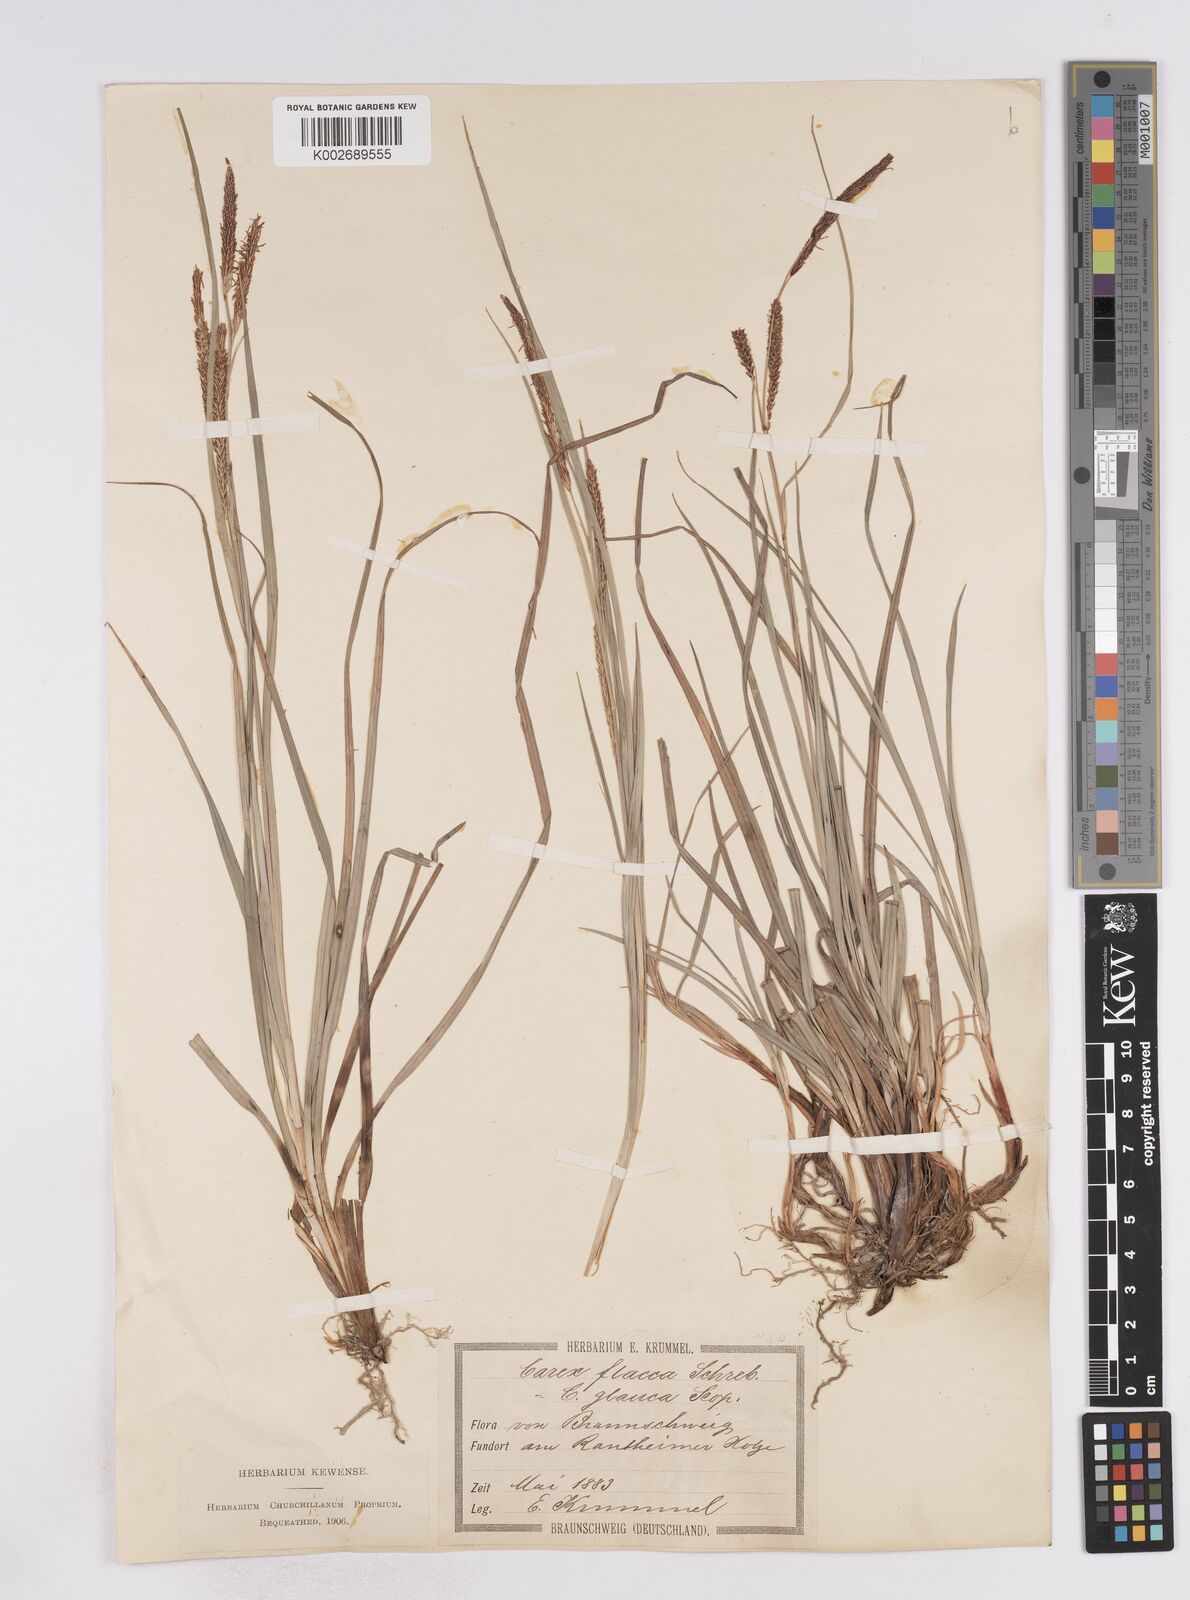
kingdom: Plantae
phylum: Tracheophyta
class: Liliopsida
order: Poales
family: Cyperaceae
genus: Carex
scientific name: Carex flacca
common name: Glaucous sedge
